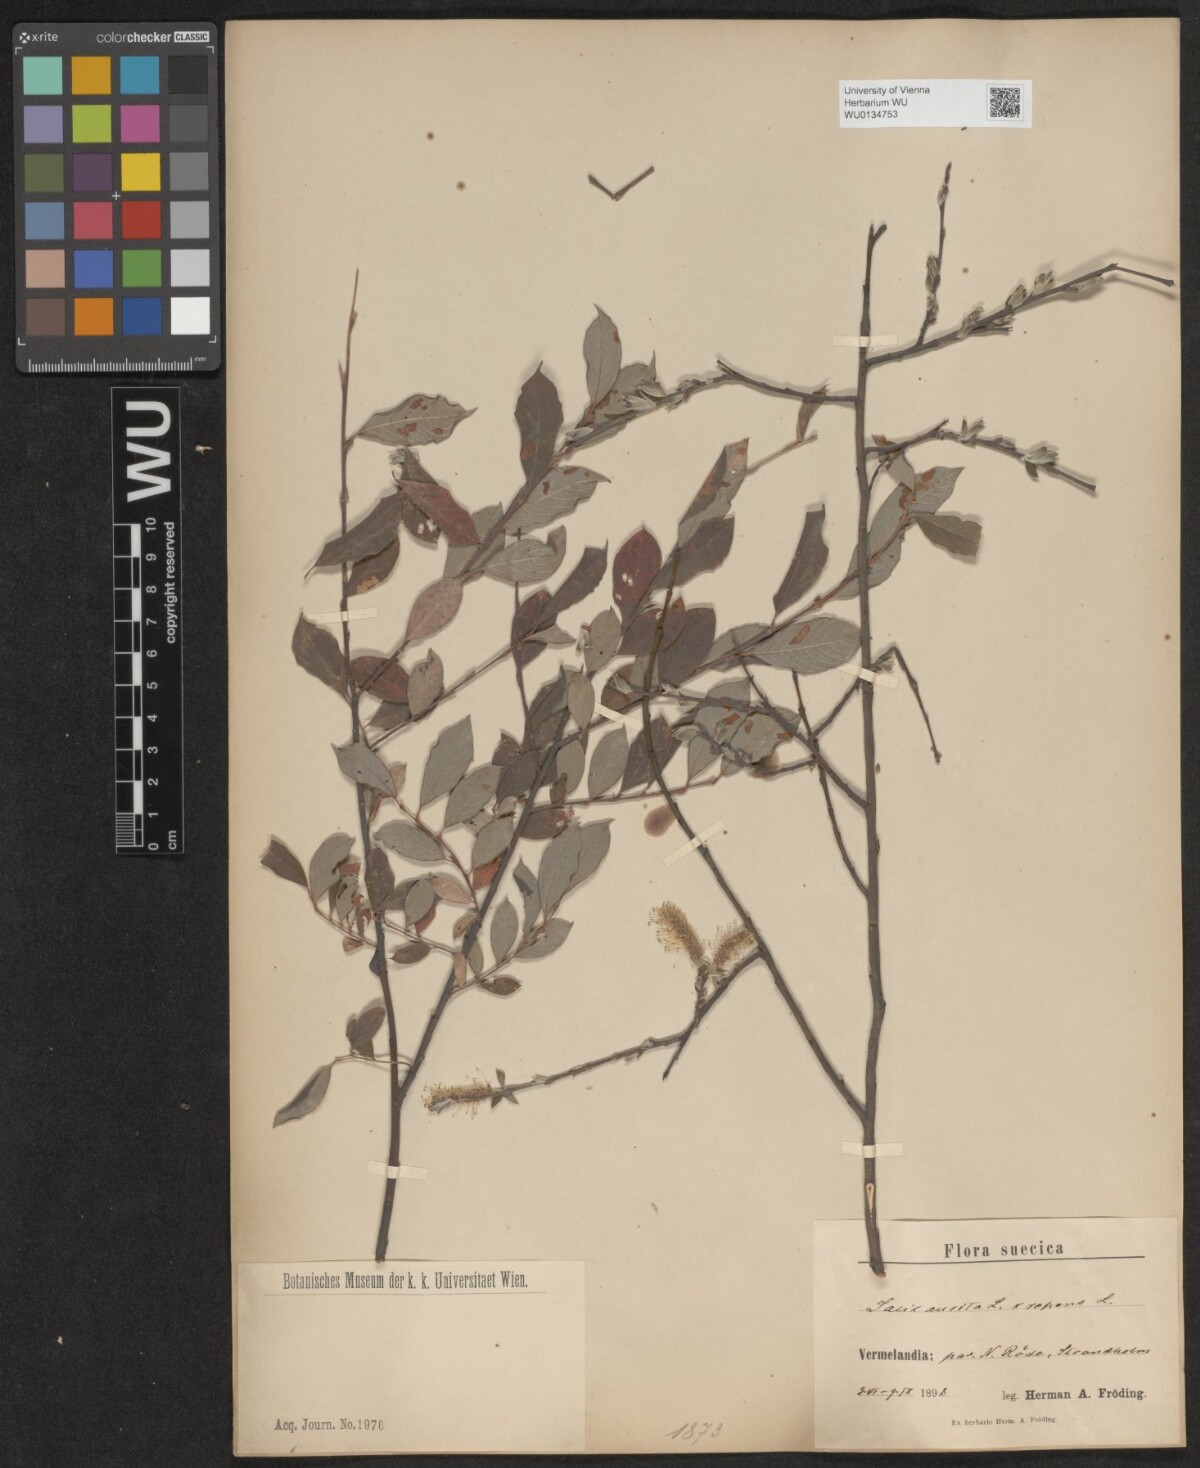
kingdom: Plantae
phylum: Tracheophyta
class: Magnoliopsida
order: Malpighiales
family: Salicaceae
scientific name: Salicaceae
